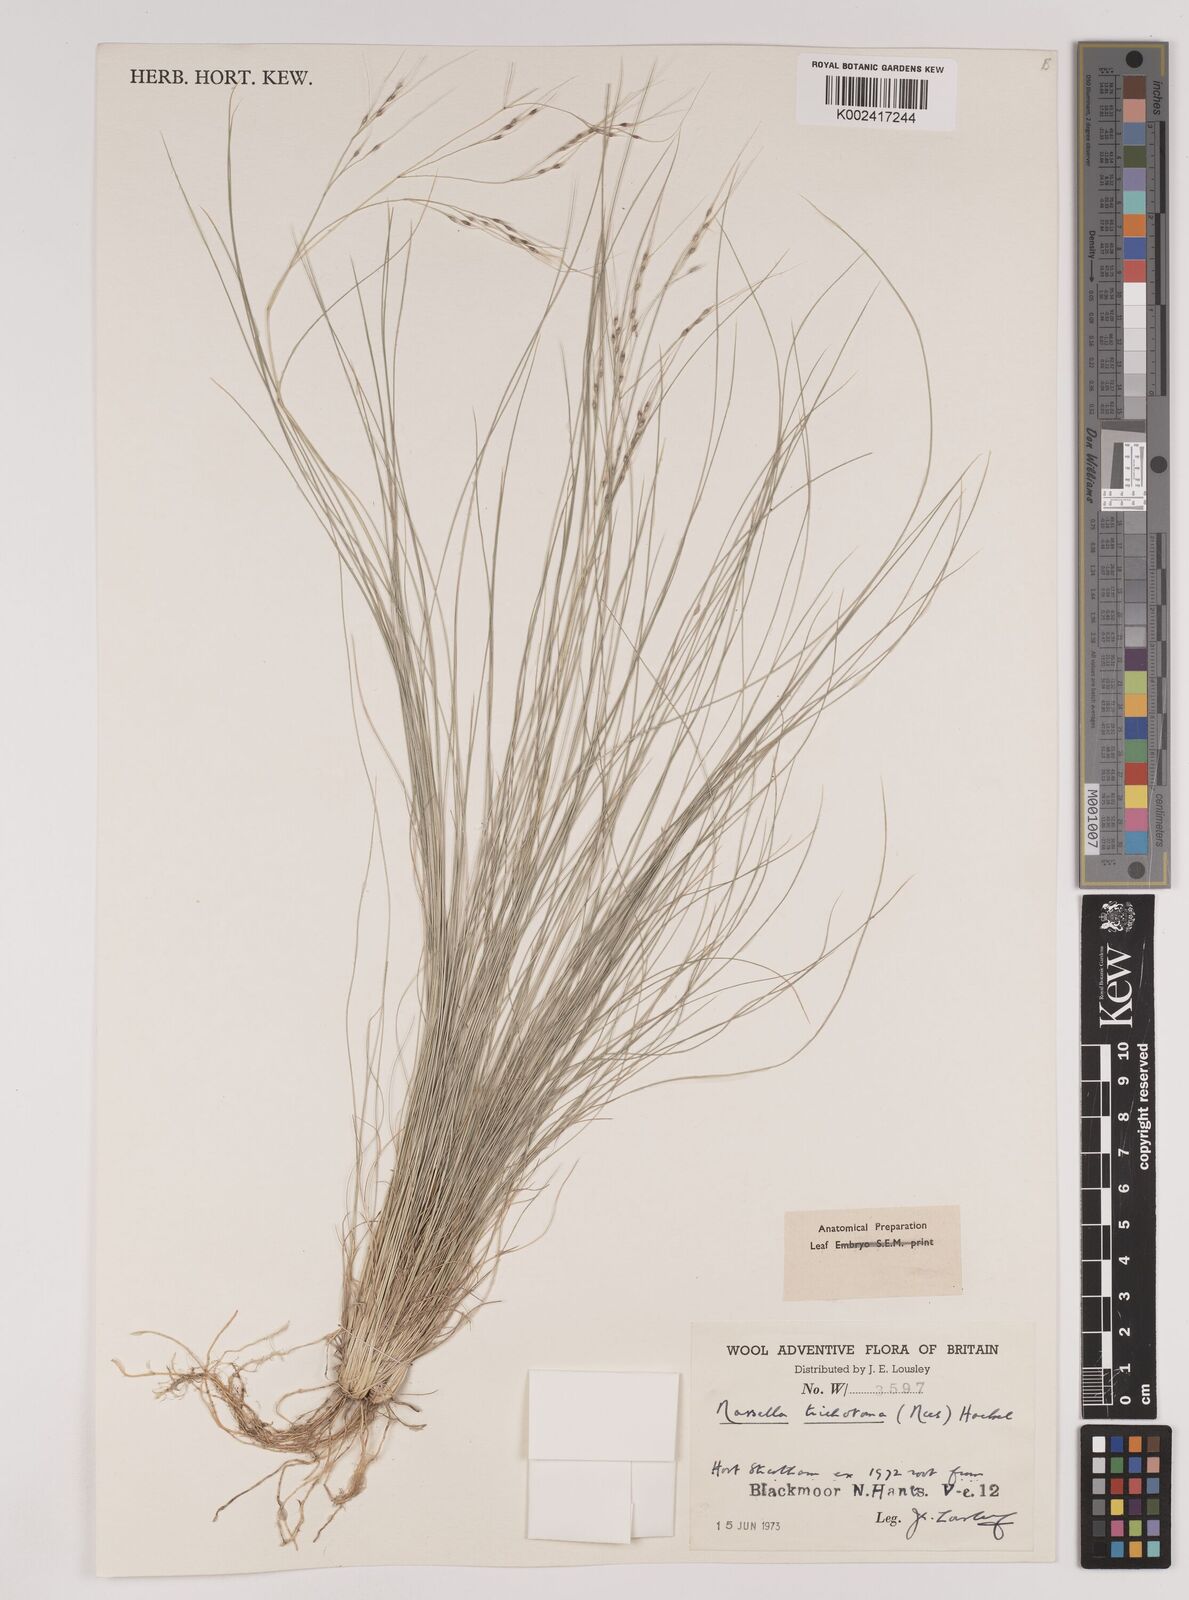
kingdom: Plantae
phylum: Tracheophyta
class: Liliopsida
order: Poales
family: Poaceae
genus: Nassella
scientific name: Nassella trichotoma
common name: Serrated tussock grass
